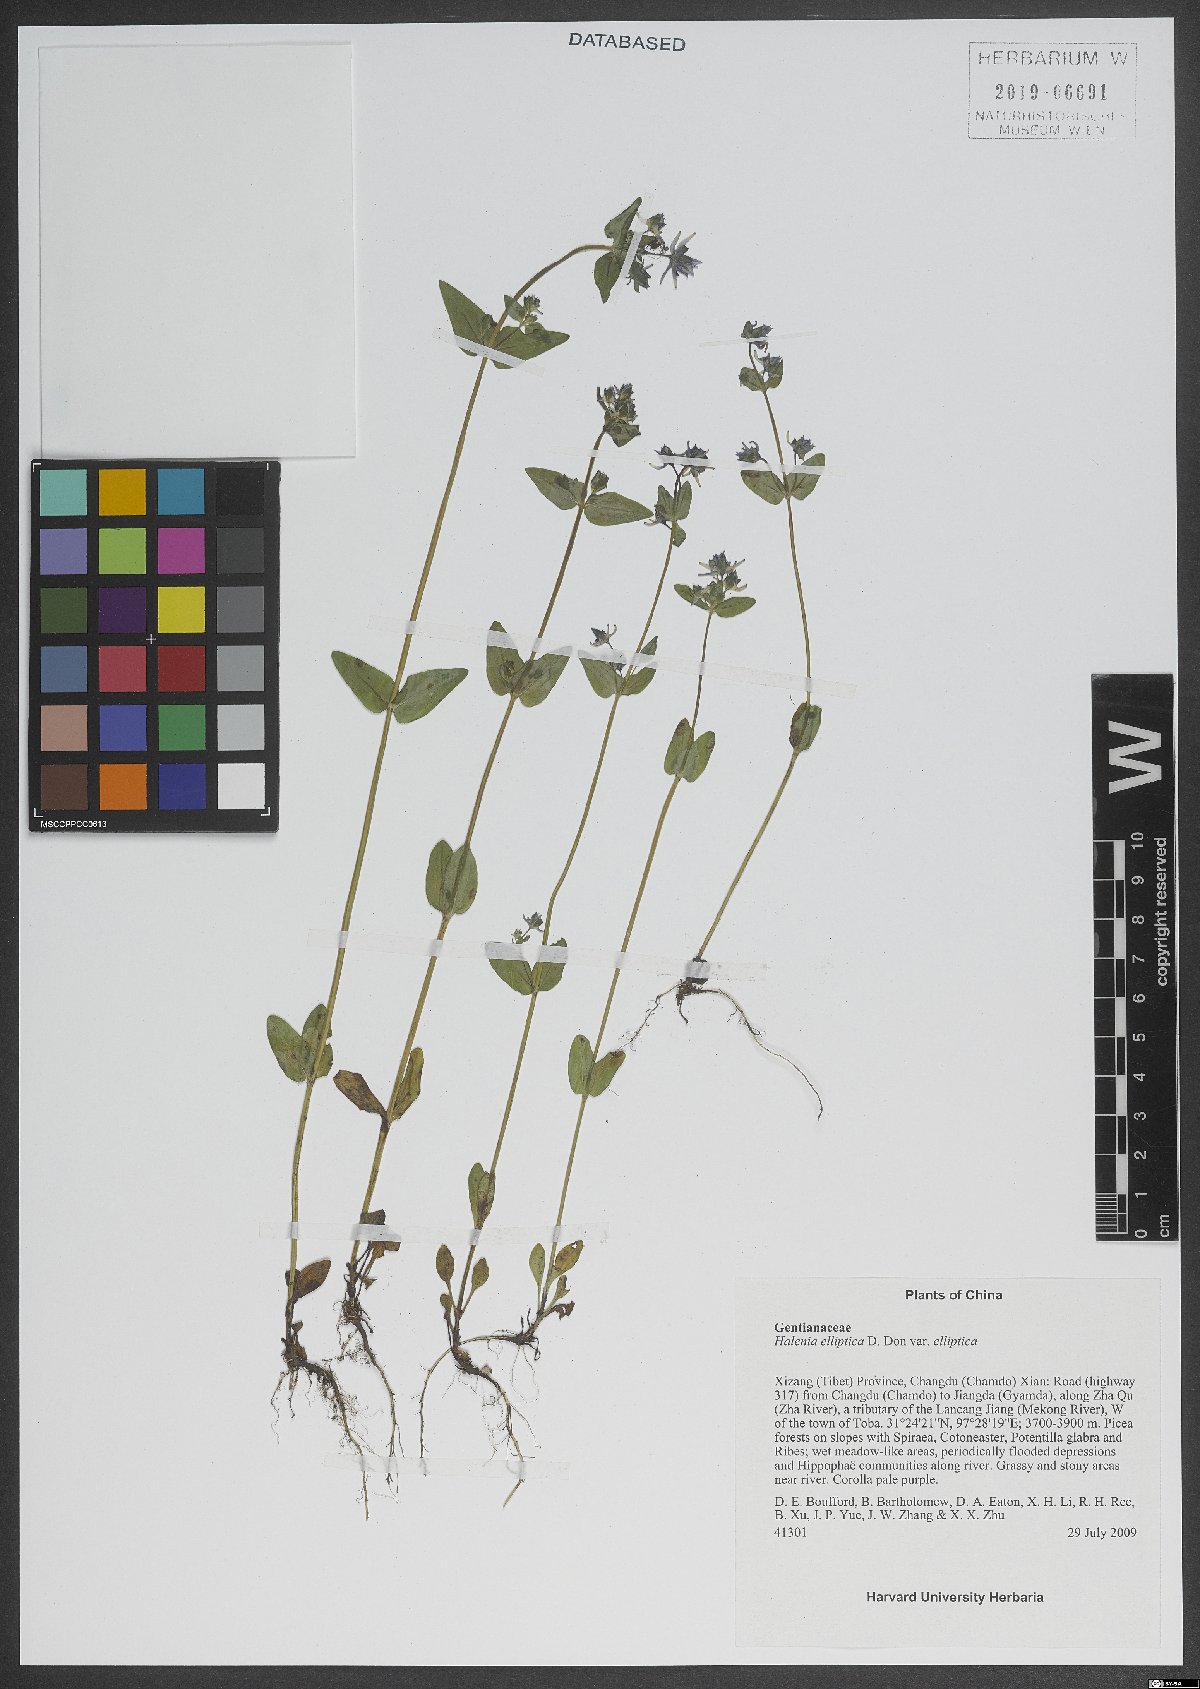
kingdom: Plantae
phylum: Tracheophyta
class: Magnoliopsida
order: Gentianales
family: Gentianaceae
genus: Halenia
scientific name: Halenia elliptica
